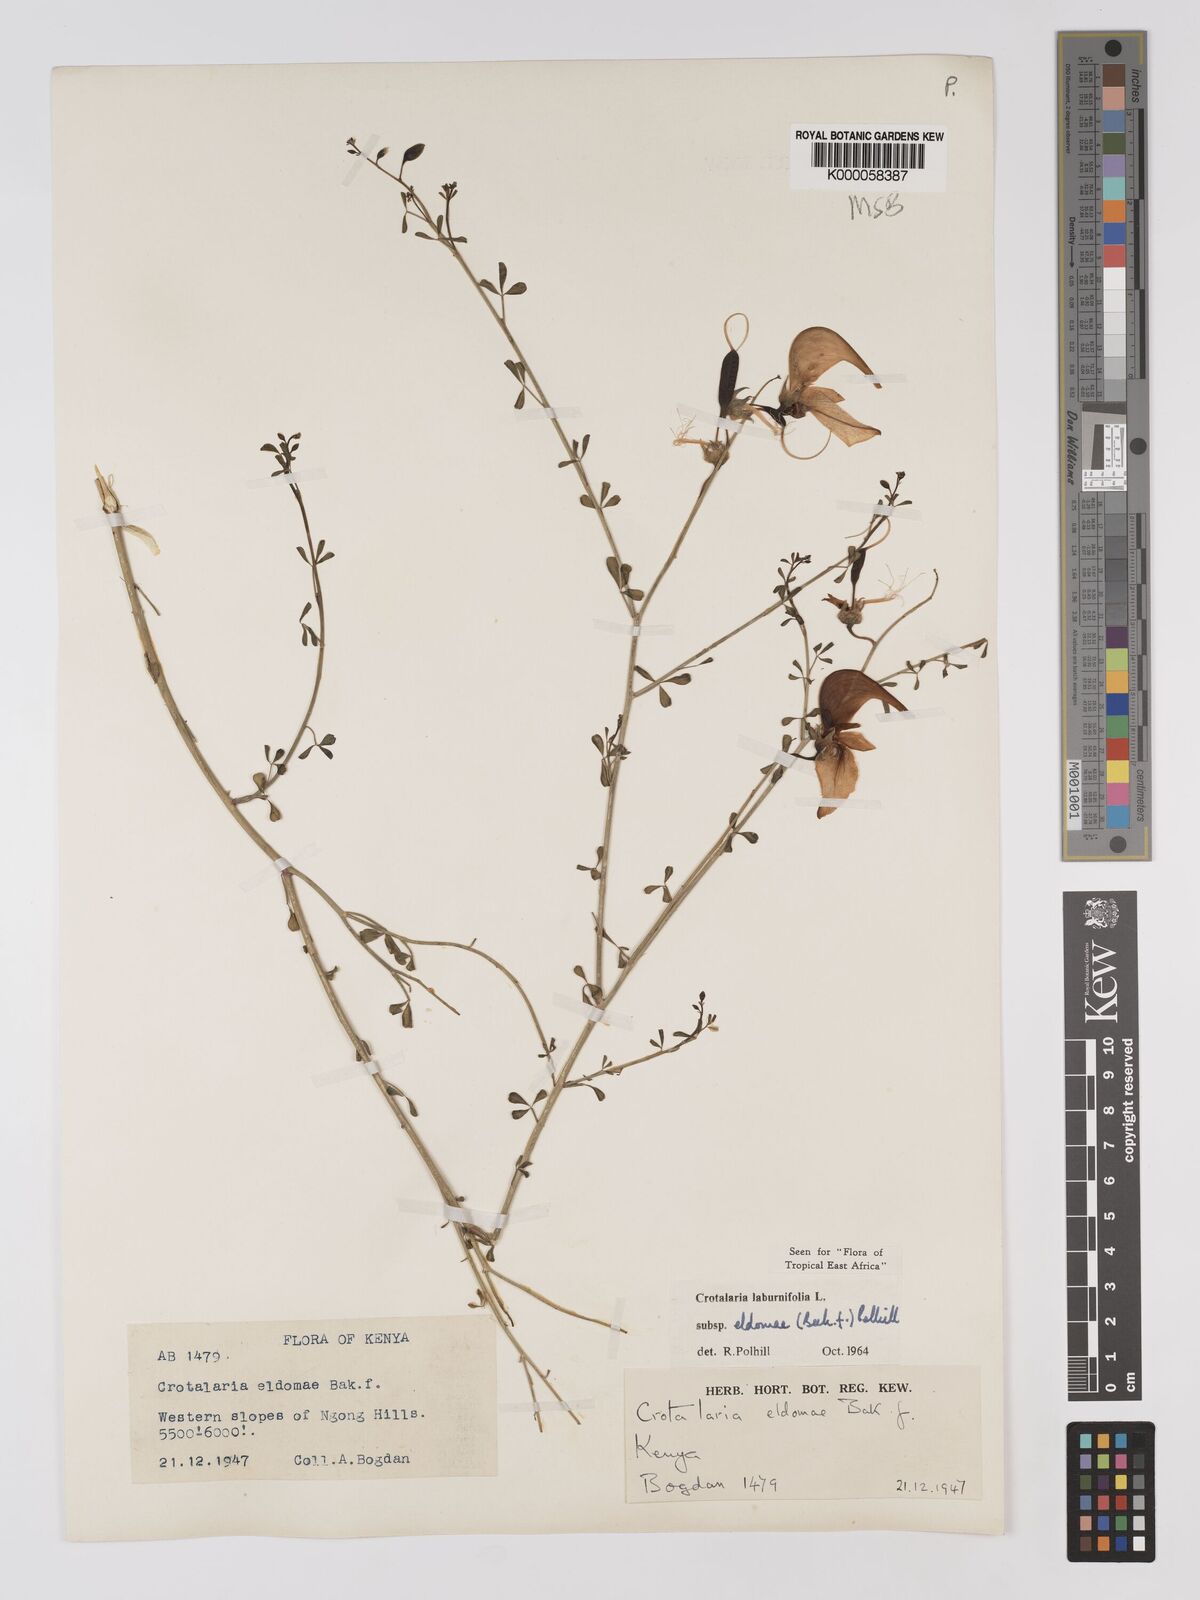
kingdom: Plantae
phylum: Tracheophyta
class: Magnoliopsida
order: Fabales
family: Fabaceae
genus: Crotalaria
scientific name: Crotalaria laburnifolia
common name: Birdflower
